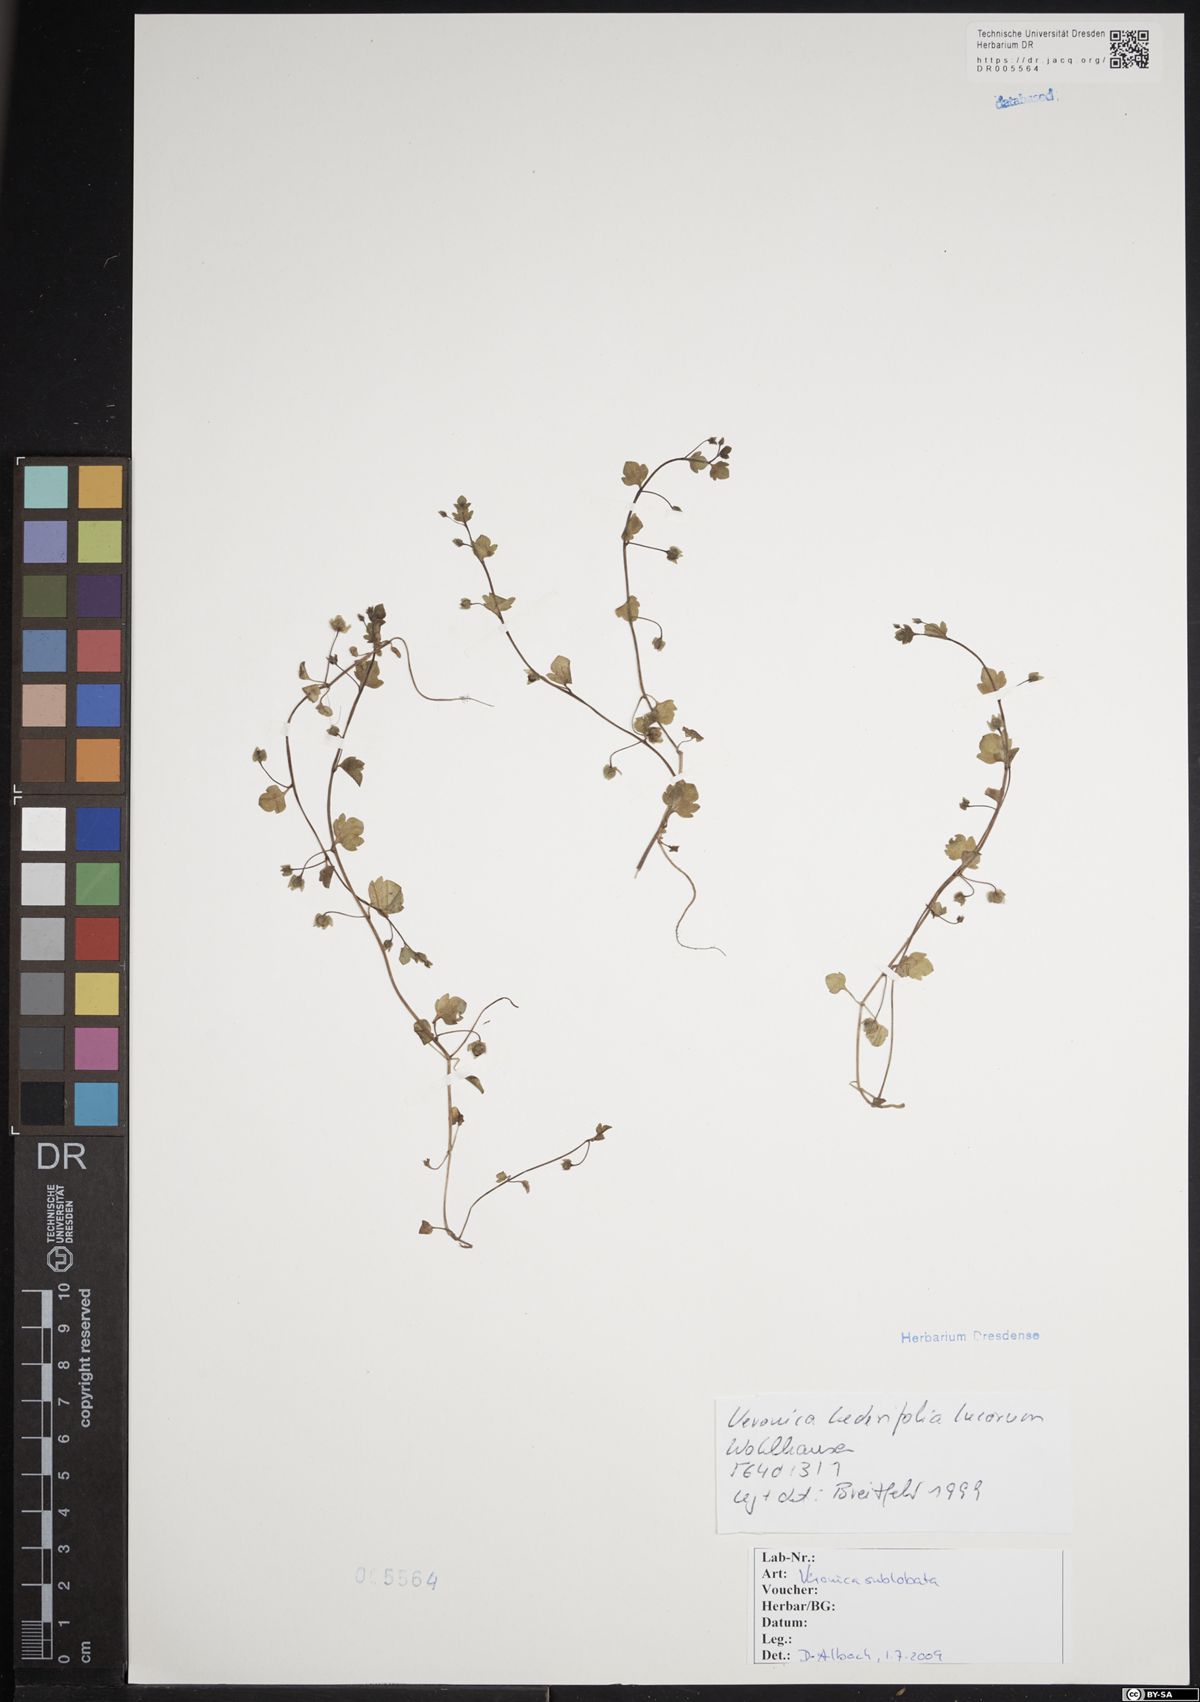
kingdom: Plantae
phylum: Tracheophyta
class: Magnoliopsida
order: Lamiales
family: Plantaginaceae
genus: Veronica
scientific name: Veronica sublobata
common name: False ivy-leaved speedwell
